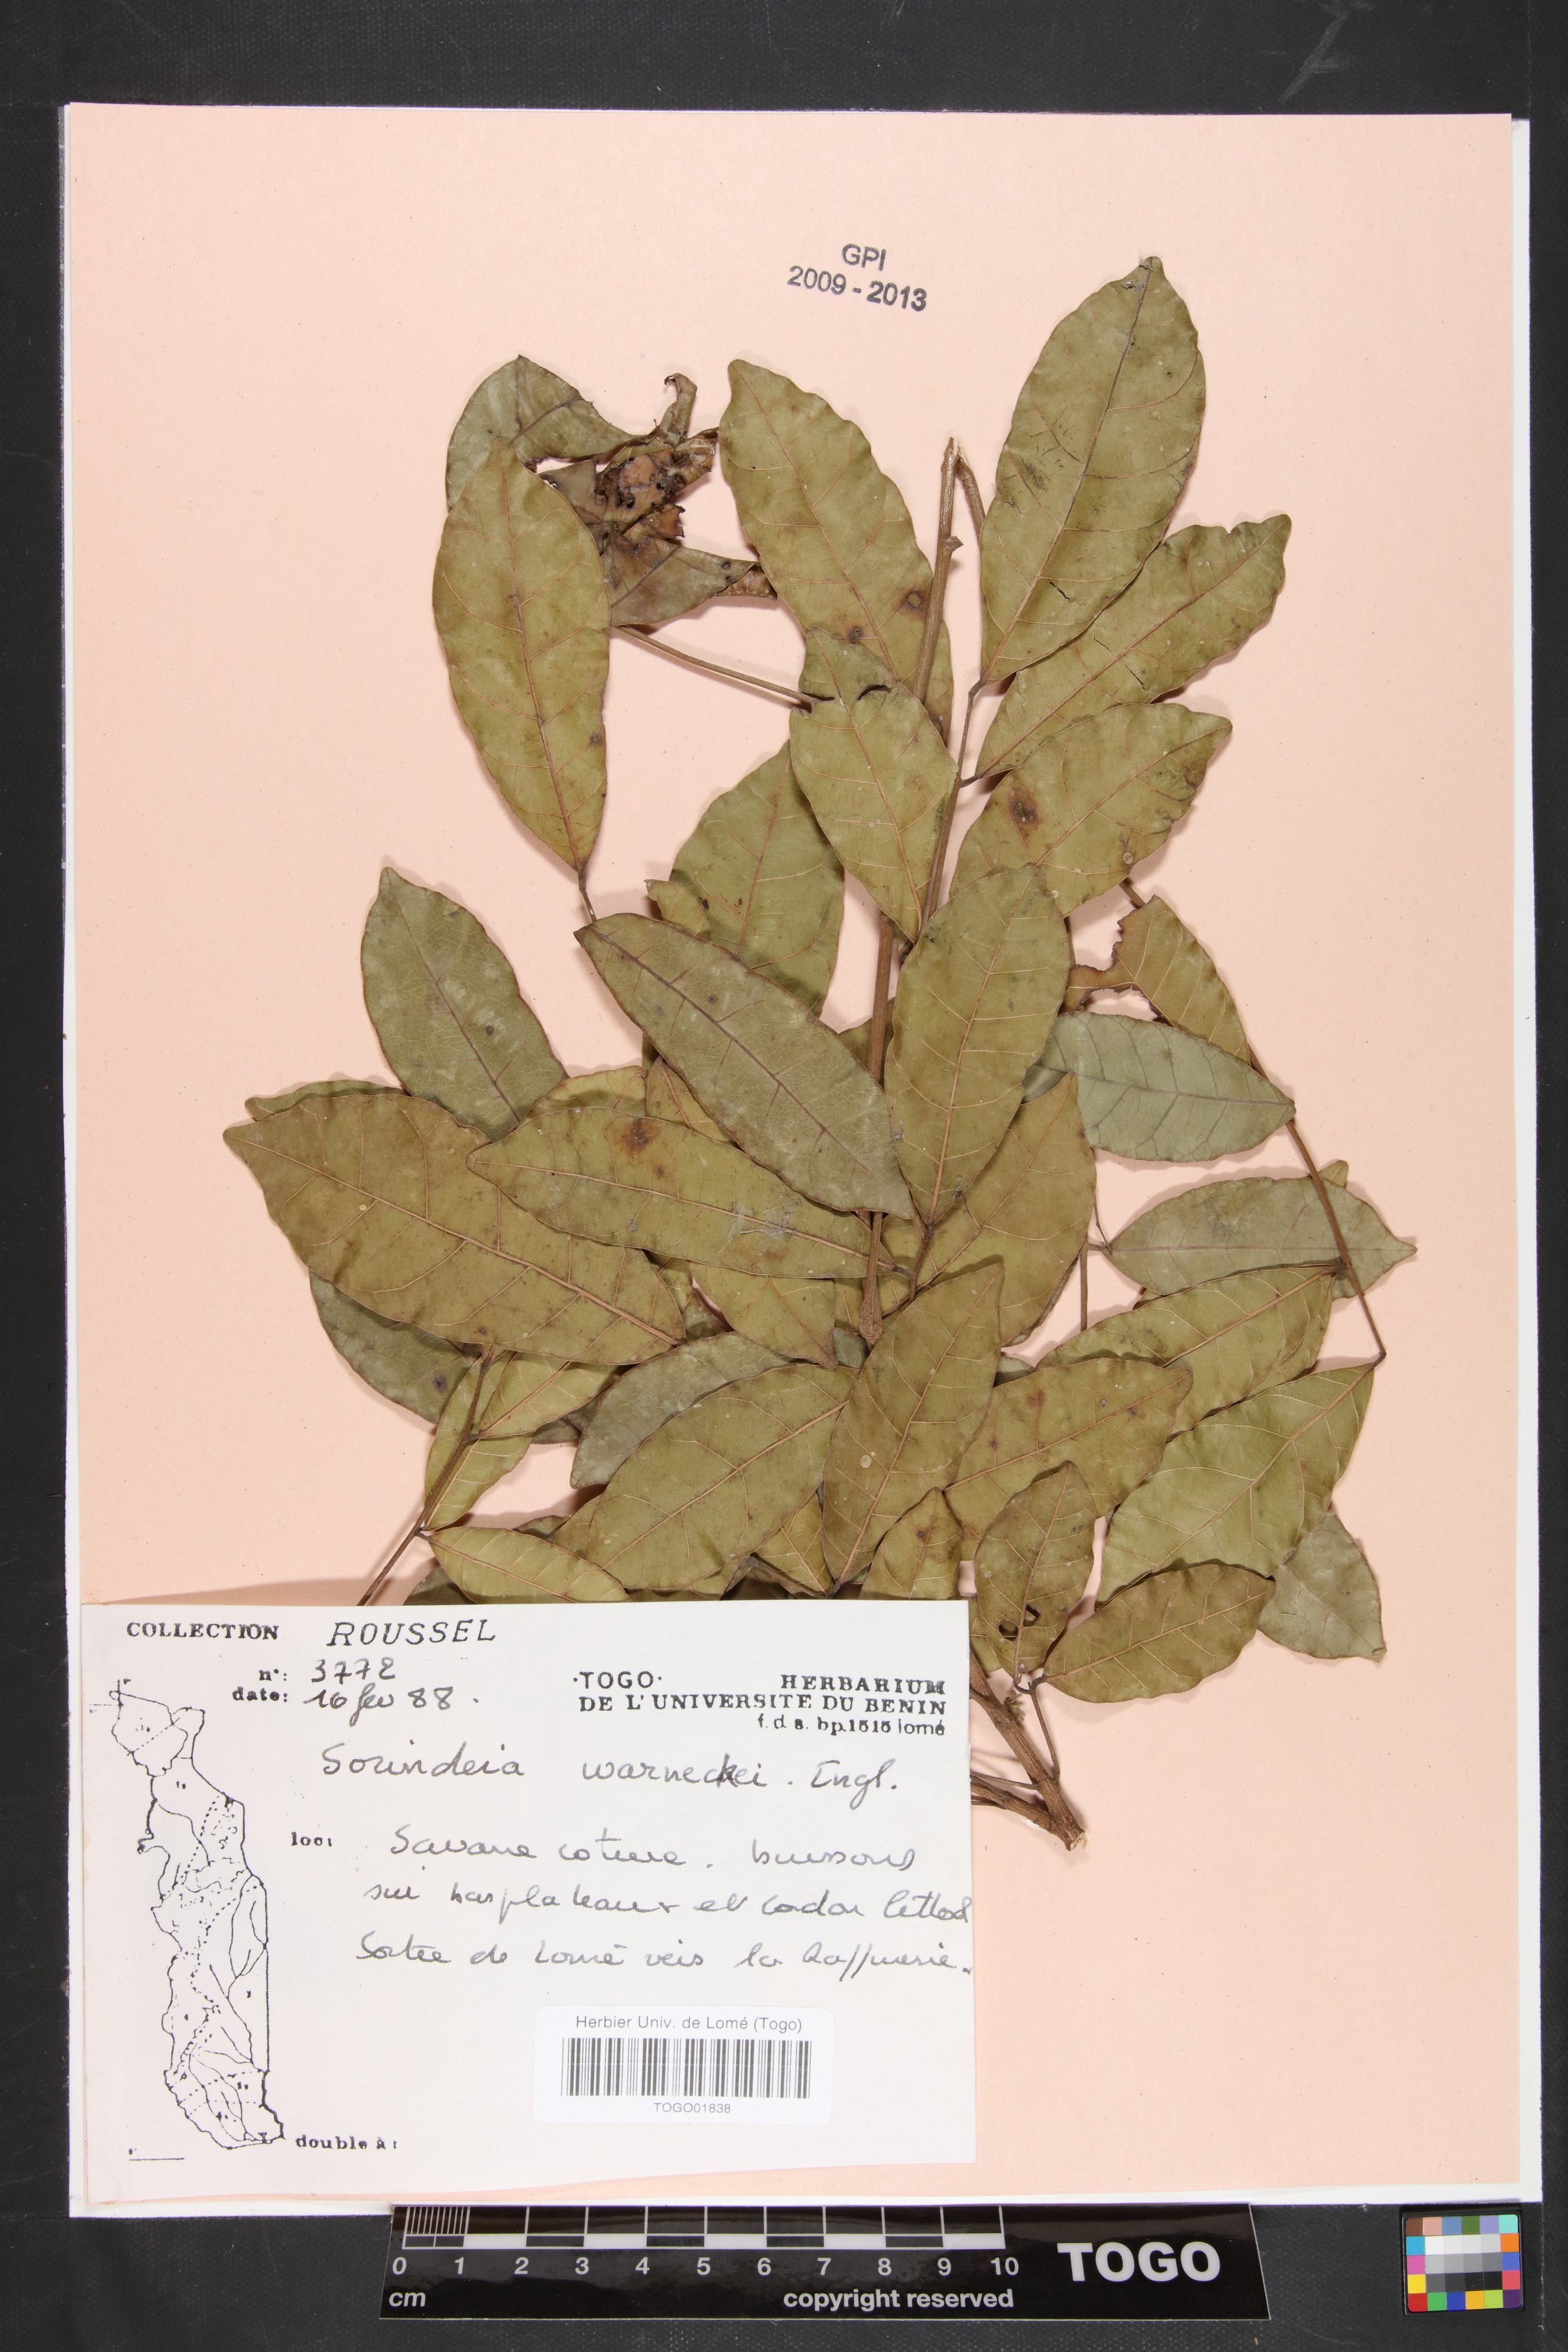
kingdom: Plantae
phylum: Tracheophyta
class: Magnoliopsida
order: Sapindales
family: Anacardiaceae
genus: Sorindeia
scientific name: Sorindeia grandifolia
